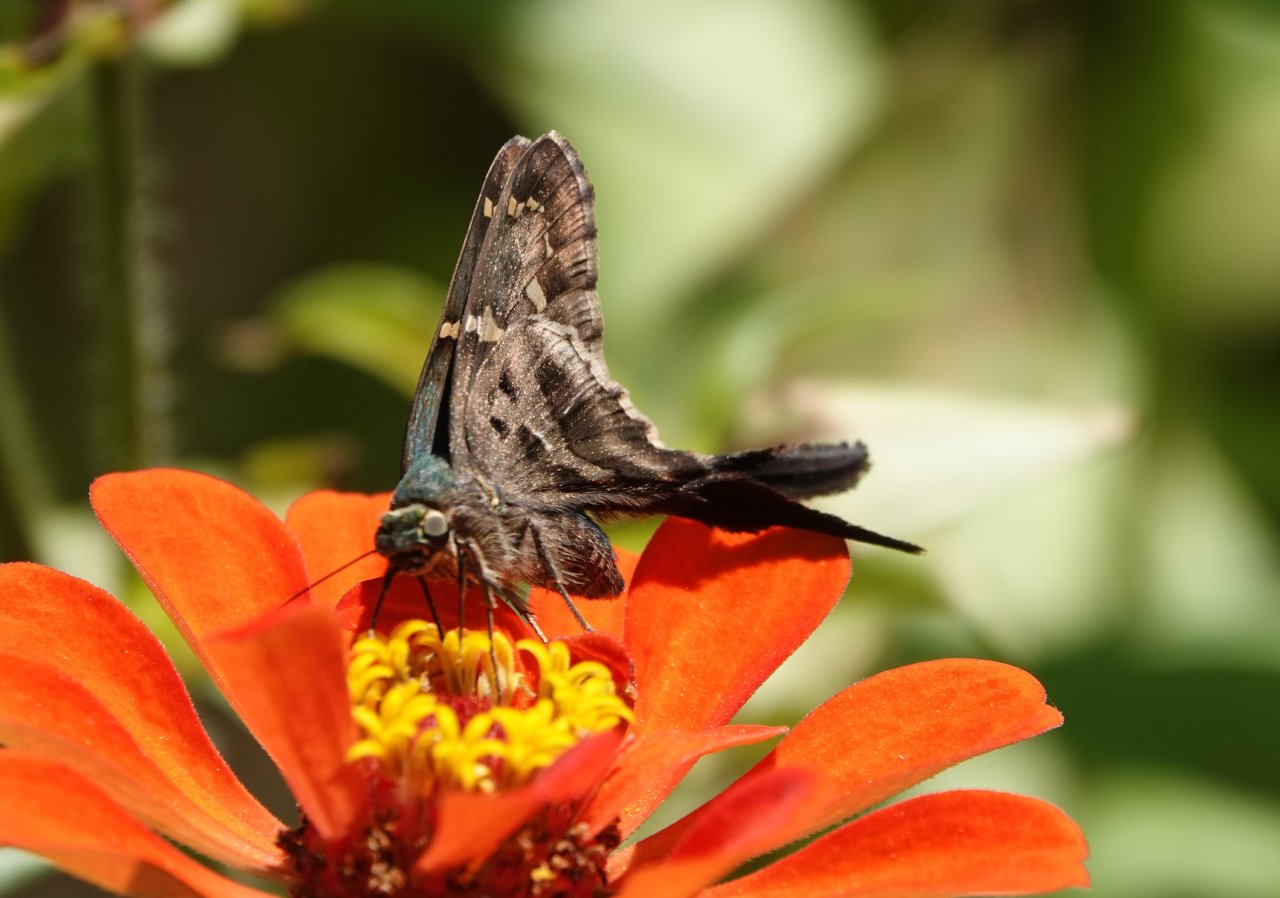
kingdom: Animalia
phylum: Arthropoda
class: Insecta
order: Lepidoptera
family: Hesperiidae
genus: Urbanus
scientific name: Urbanus proteus
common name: Long-tailed Skipper
